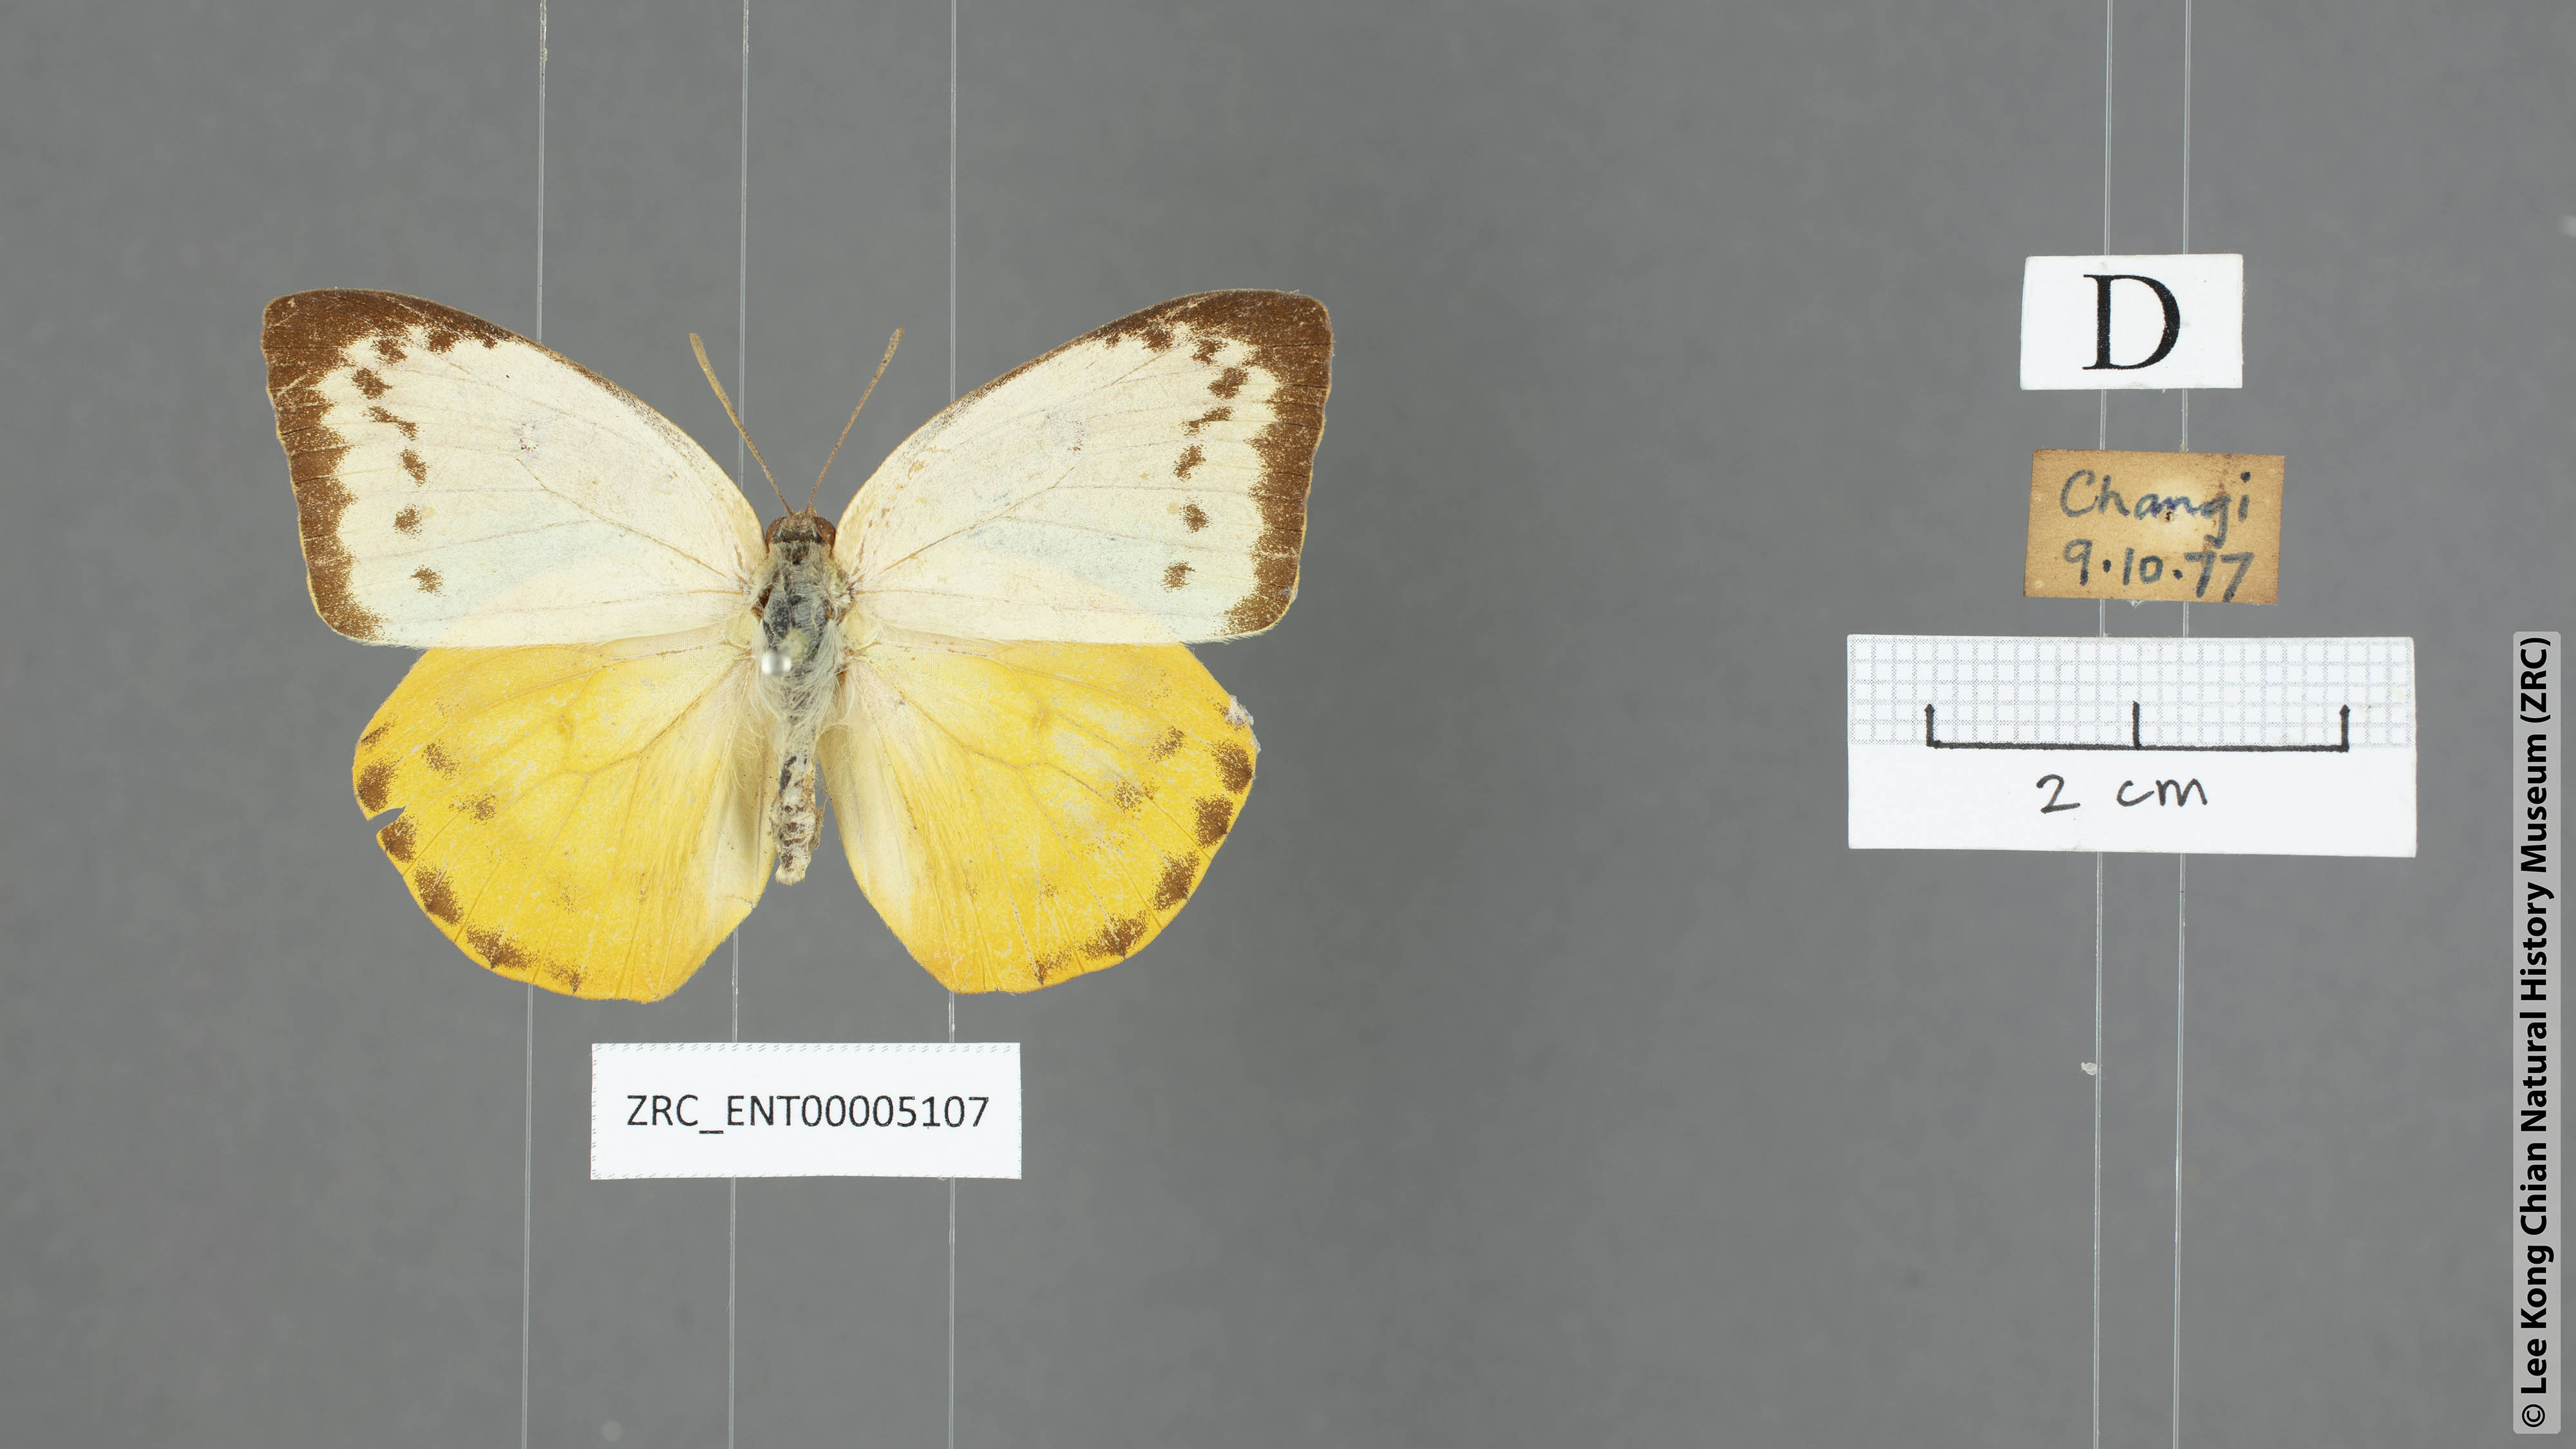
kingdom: Animalia
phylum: Arthropoda
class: Insecta
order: Lepidoptera
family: Pieridae
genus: Catopsilia
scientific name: Catopsilia scylla
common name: Orange emigrant
